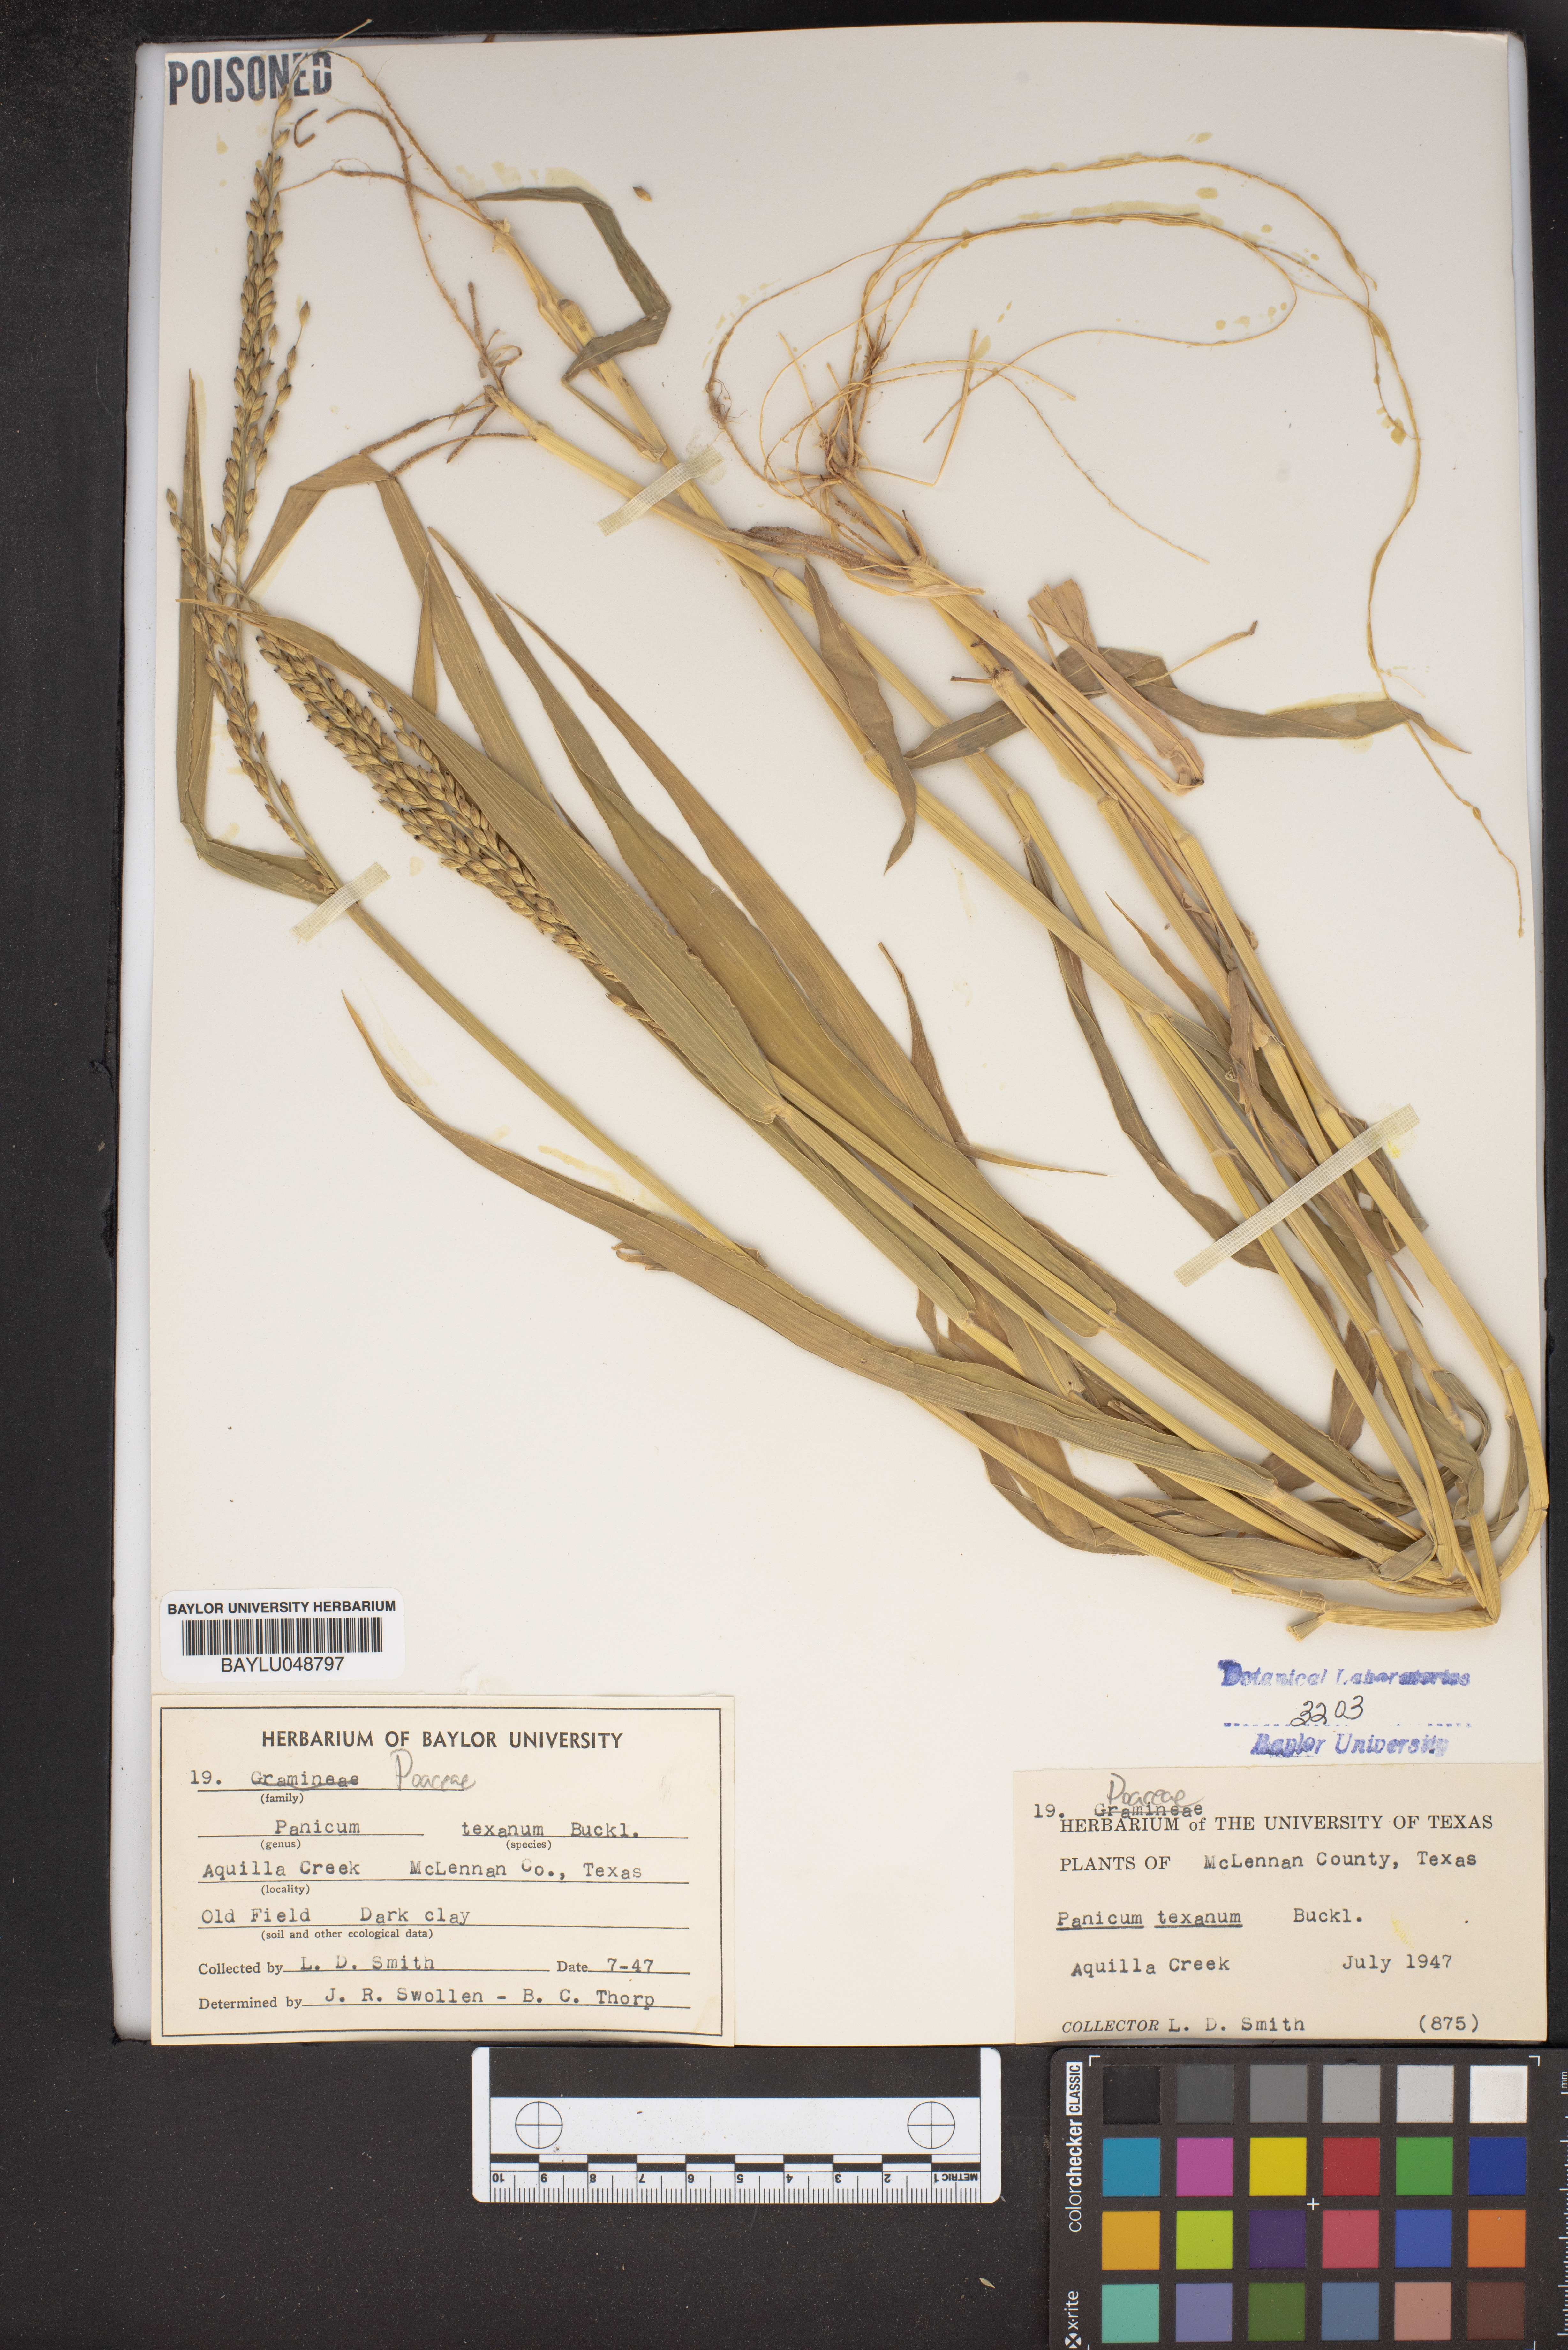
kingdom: Plantae
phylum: Tracheophyta
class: Liliopsida
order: Poales
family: Poaceae
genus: Urochloa
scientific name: Urochloa texana
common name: Texas millet
